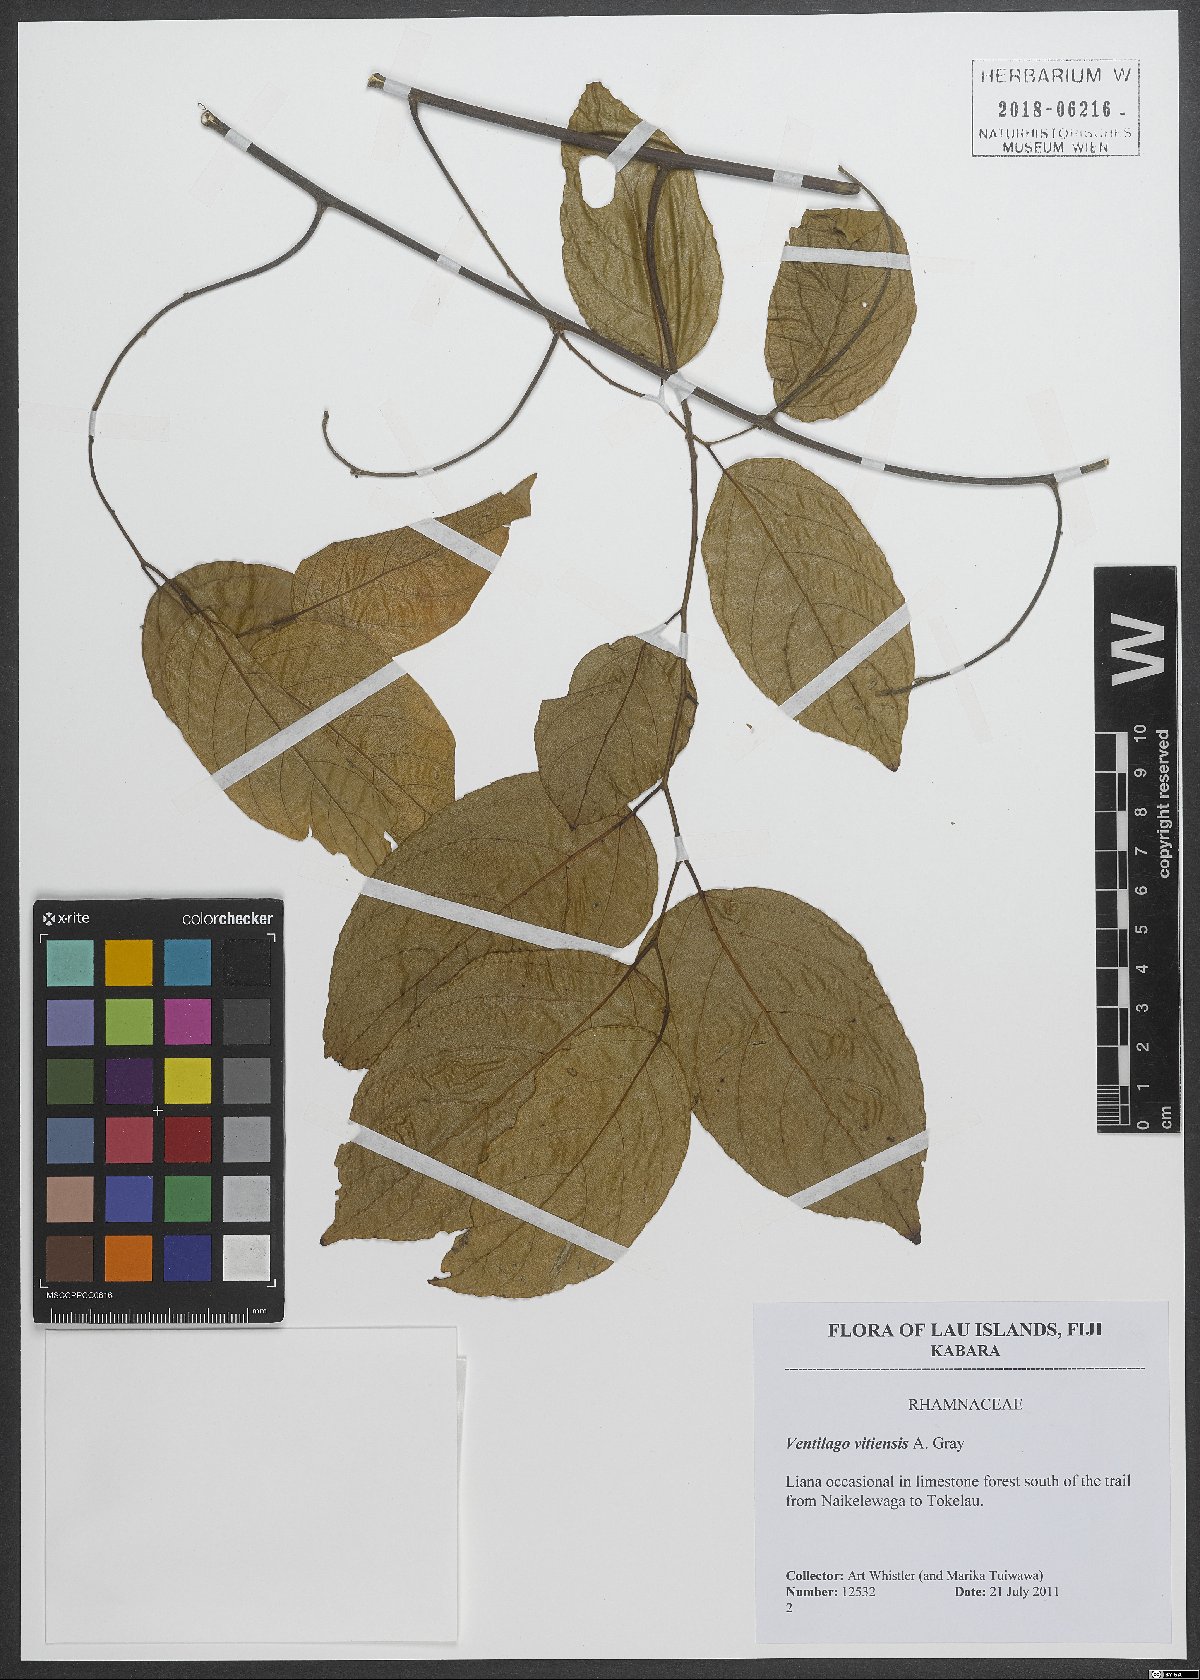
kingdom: Plantae
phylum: Tracheophyta
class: Magnoliopsida
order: Rosales
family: Rhamnaceae
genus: Ventilago
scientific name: Ventilago vitiensis
